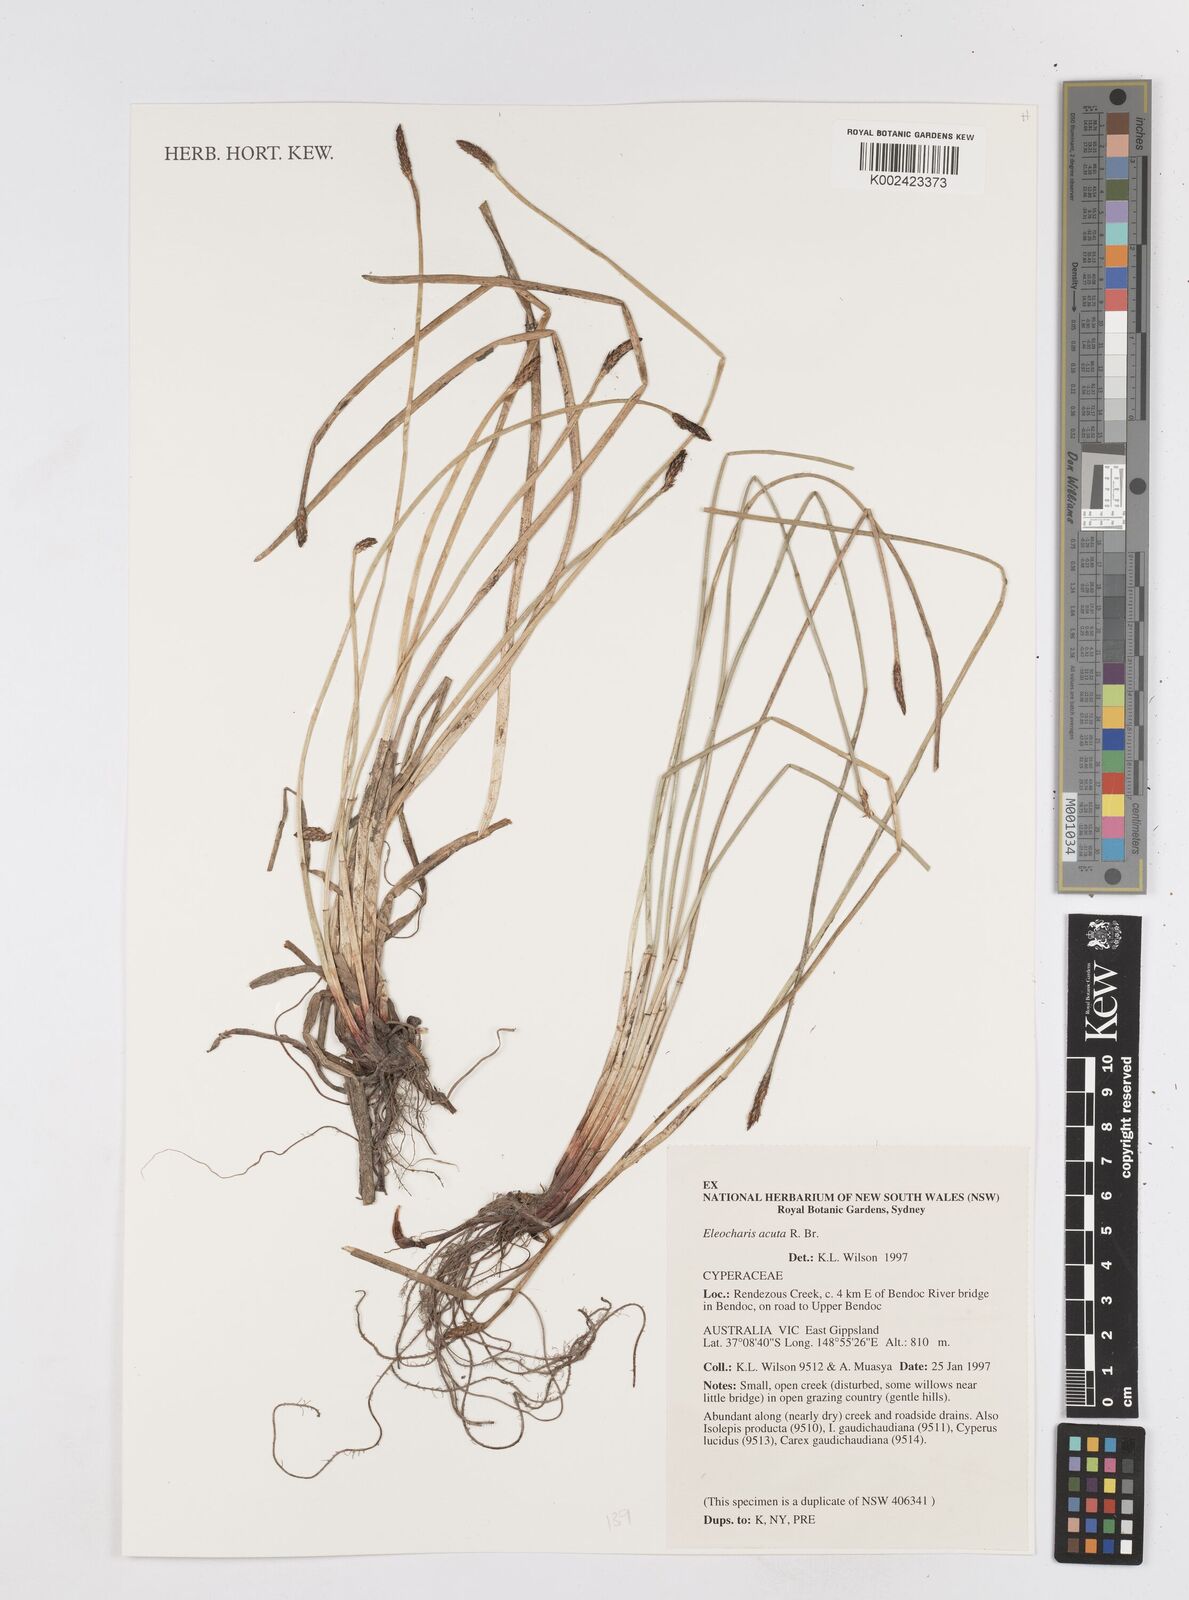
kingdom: Plantae
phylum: Tracheophyta
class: Liliopsida
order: Poales
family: Cyperaceae
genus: Eleocharis
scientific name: Eleocharis acuta
